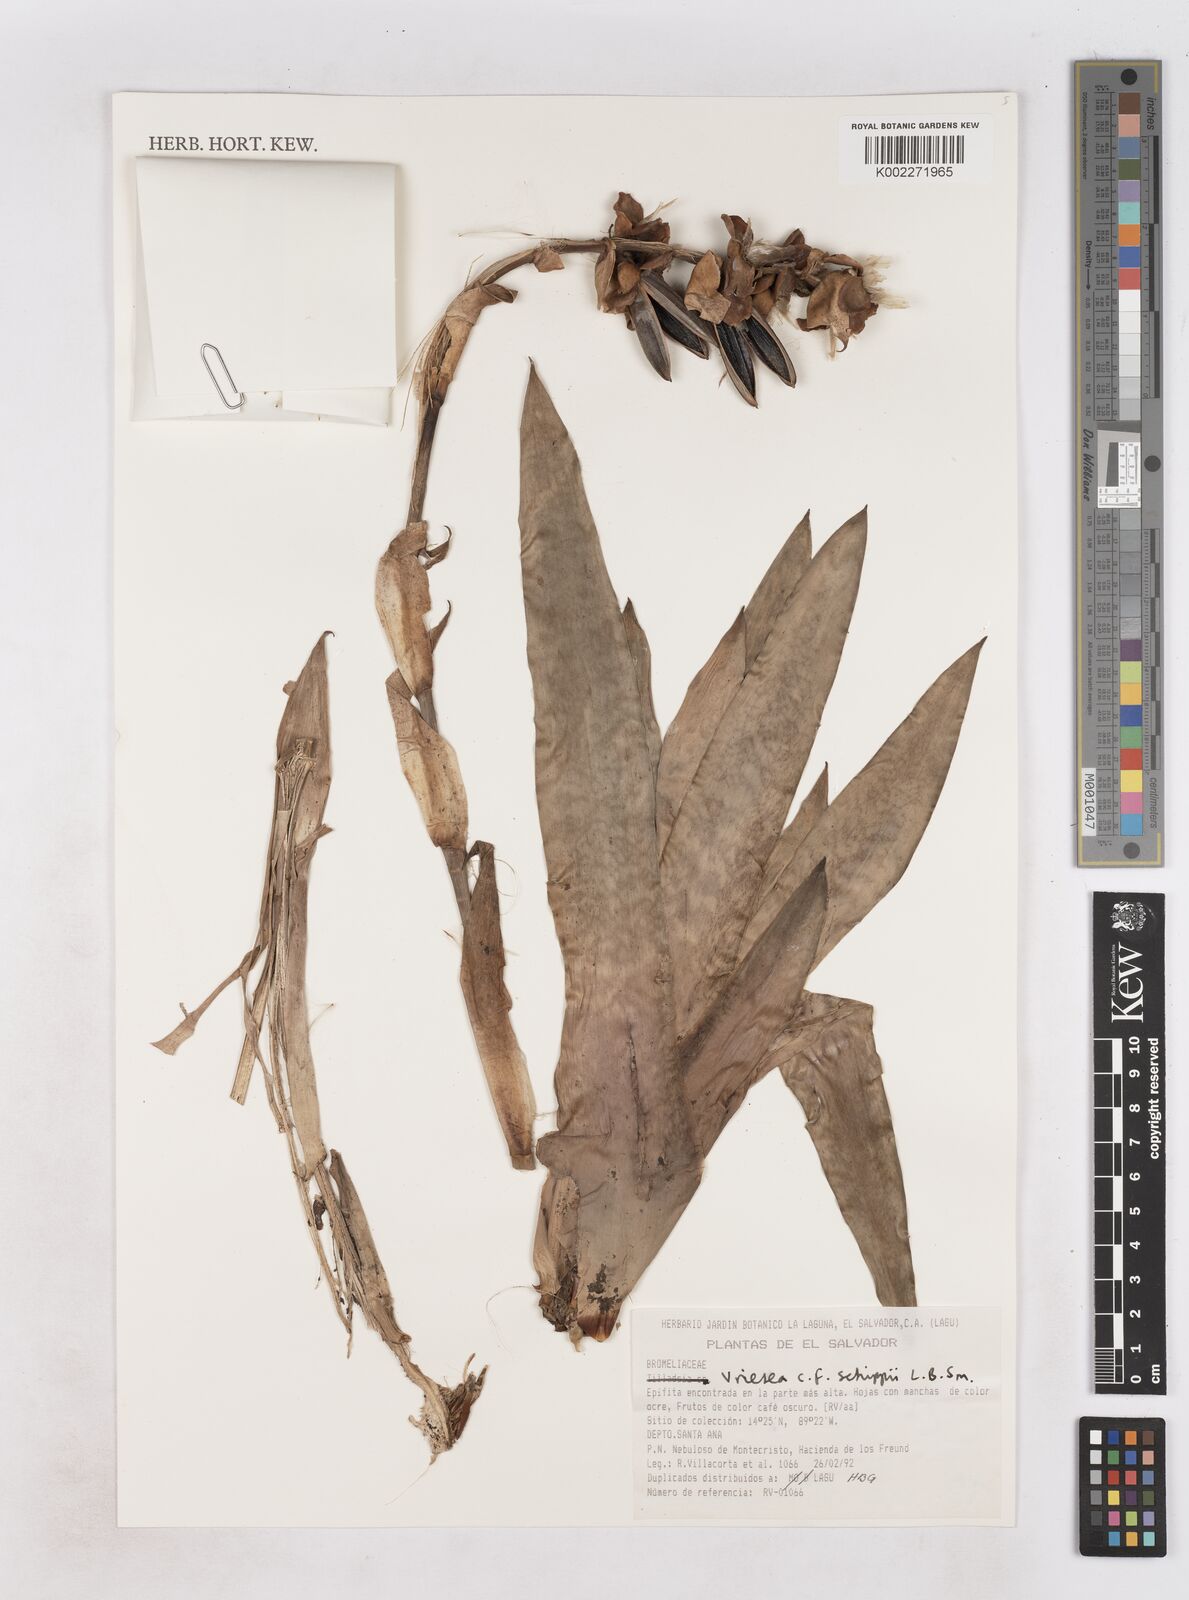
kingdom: Plantae
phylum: Tracheophyta
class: Liliopsida
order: Poales
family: Bromeliaceae
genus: Werauhia
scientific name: Werauhia vittata
